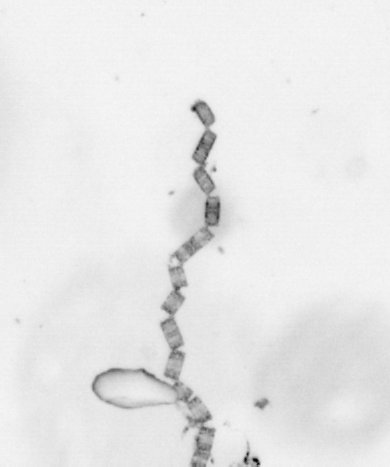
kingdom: Chromista
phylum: Ochrophyta
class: Bacillariophyceae
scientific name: Bacillariophyceae
